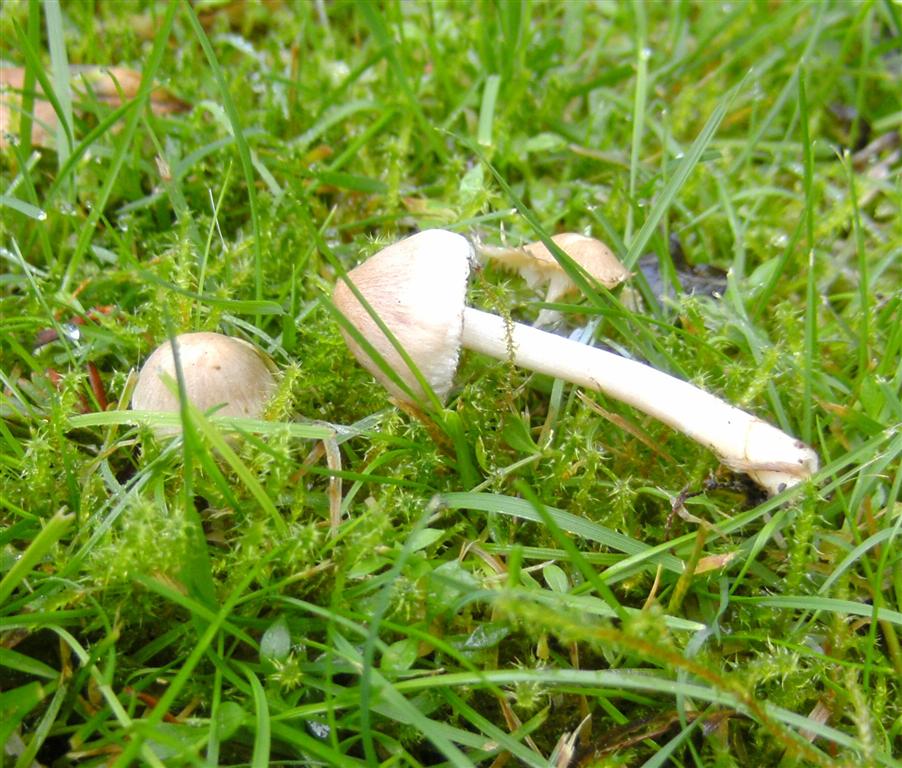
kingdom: Fungi
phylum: Basidiomycota
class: Agaricomycetes
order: Agaricales
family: Inocybaceae
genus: Inocybe
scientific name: Inocybe sindonia
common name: bleg trævlhat
